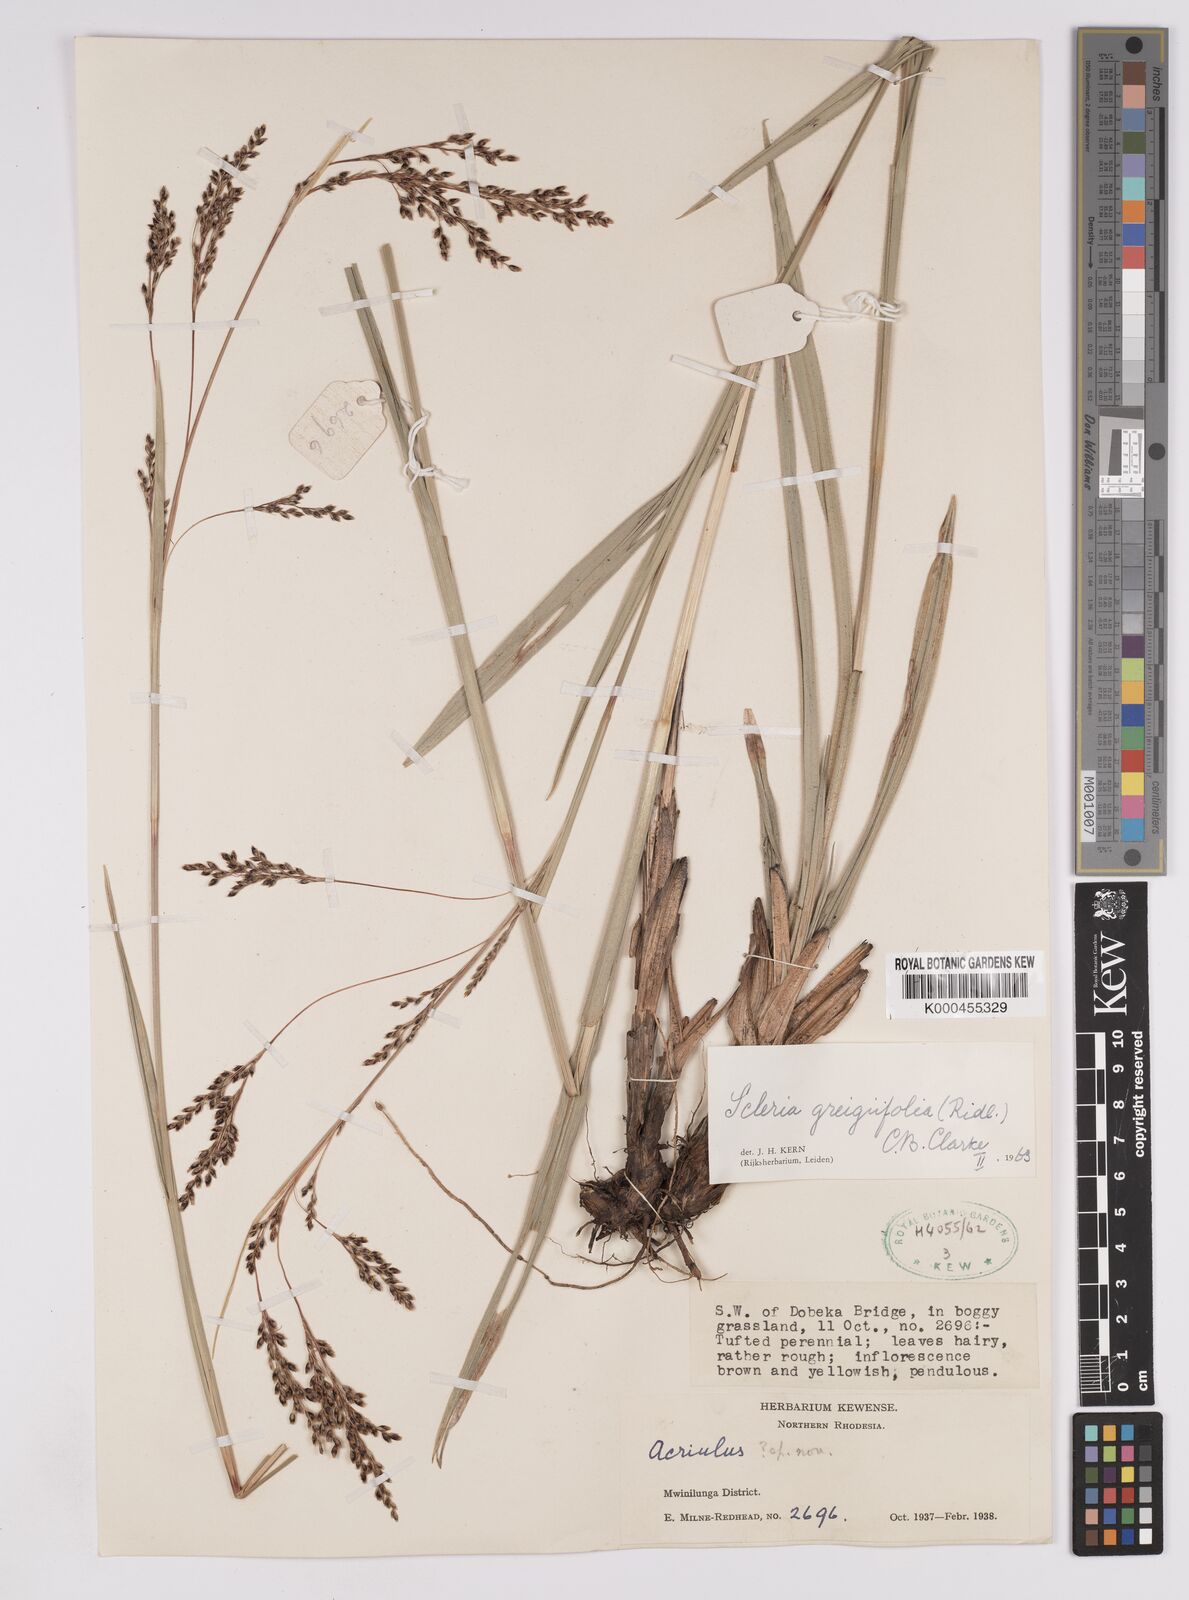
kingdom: Plantae
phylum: Tracheophyta
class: Liliopsida
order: Poales
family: Cyperaceae
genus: Scleria
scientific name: Scleria greigiifolia
